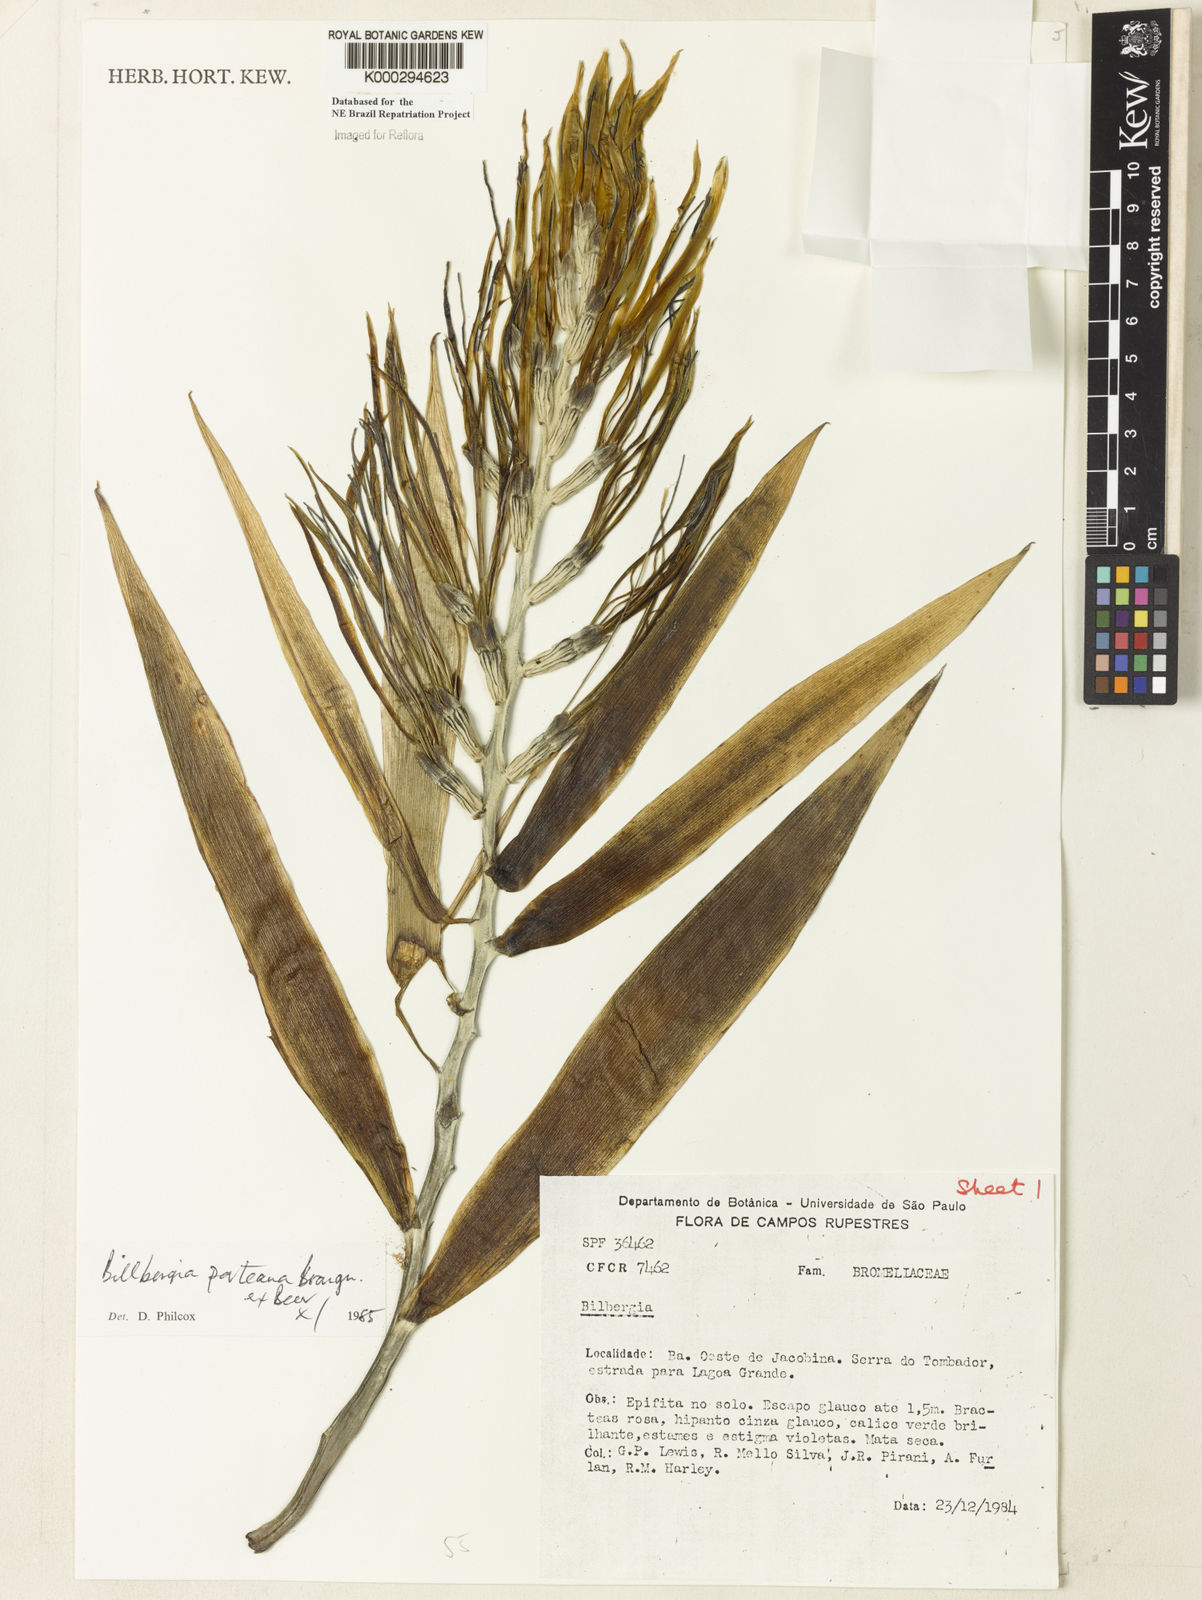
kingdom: Plantae
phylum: Tracheophyta
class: Liliopsida
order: Poales
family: Bromeliaceae
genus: Billbergia
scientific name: Billbergia porteana
